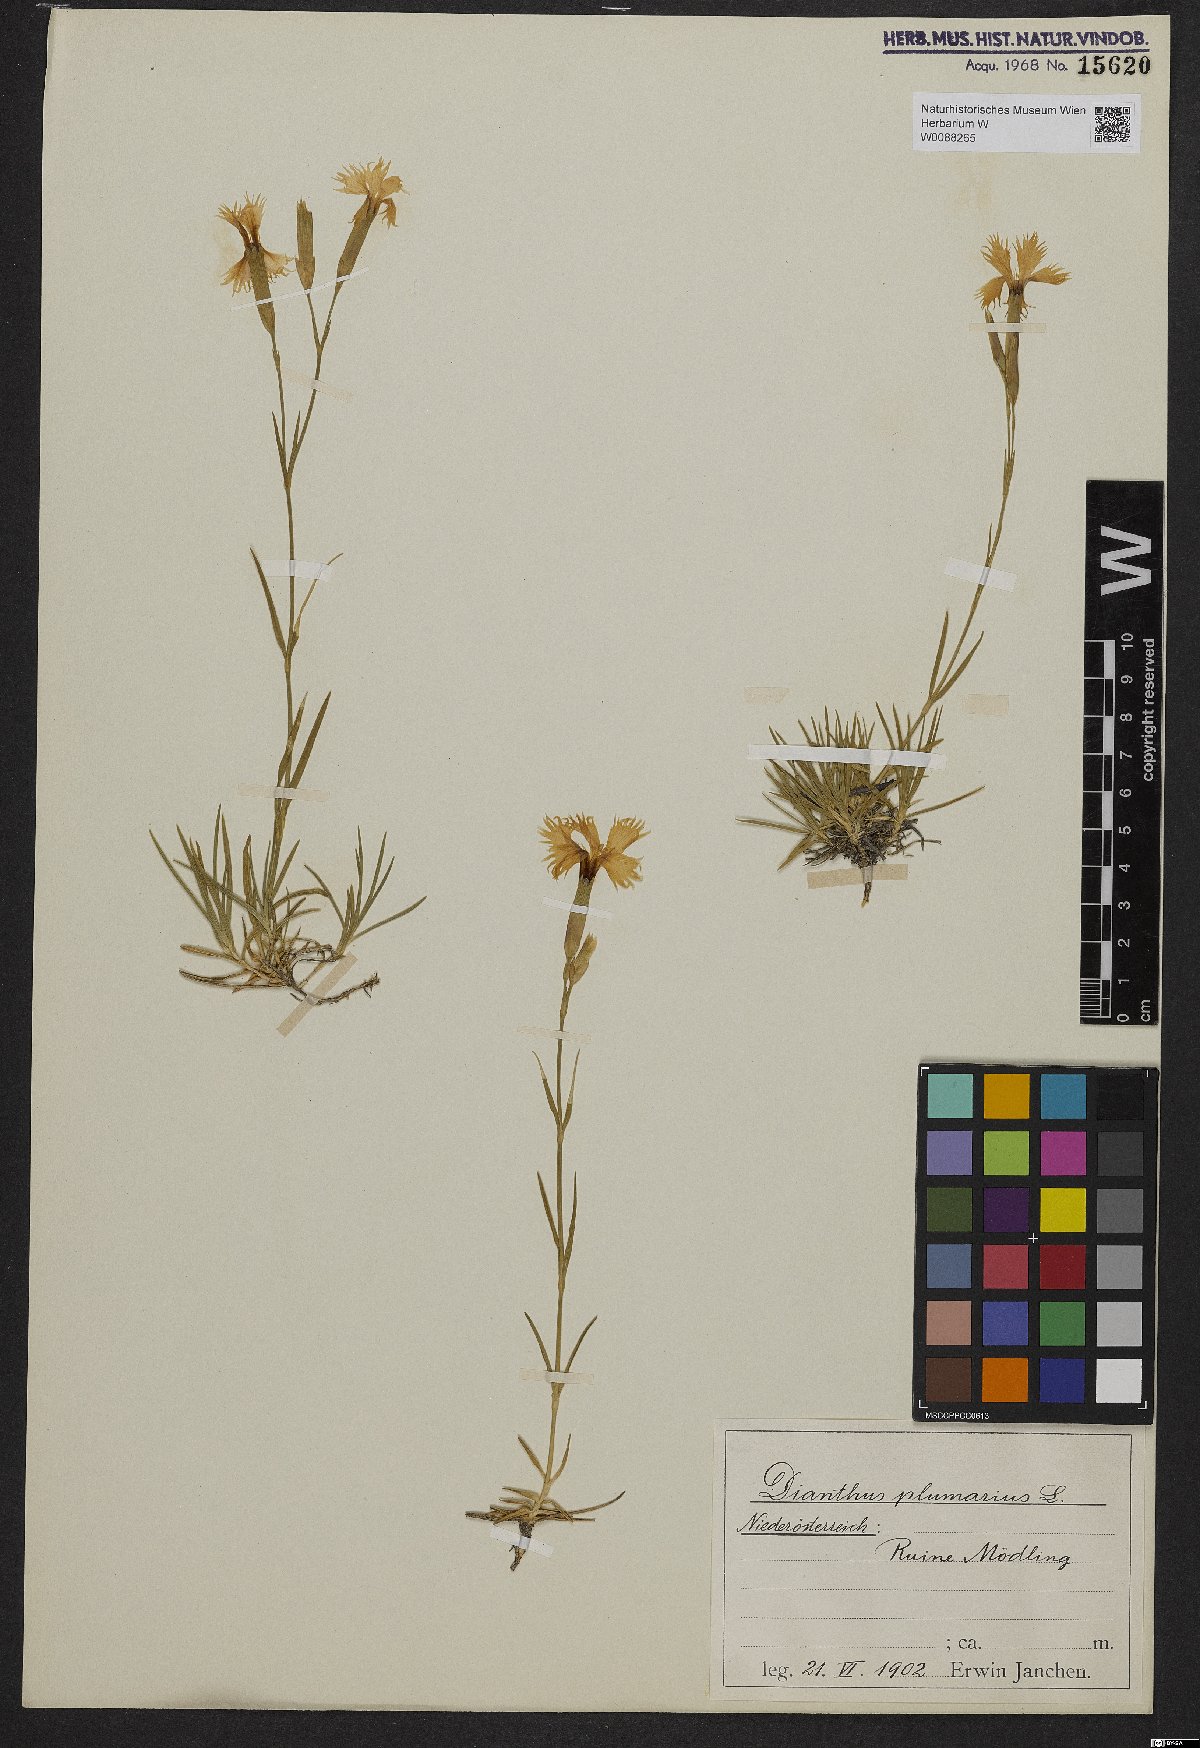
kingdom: Plantae
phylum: Tracheophyta
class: Magnoliopsida
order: Caryophyllales
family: Caryophyllaceae
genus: Dianthus
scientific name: Dianthus plumarius
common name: Pink
